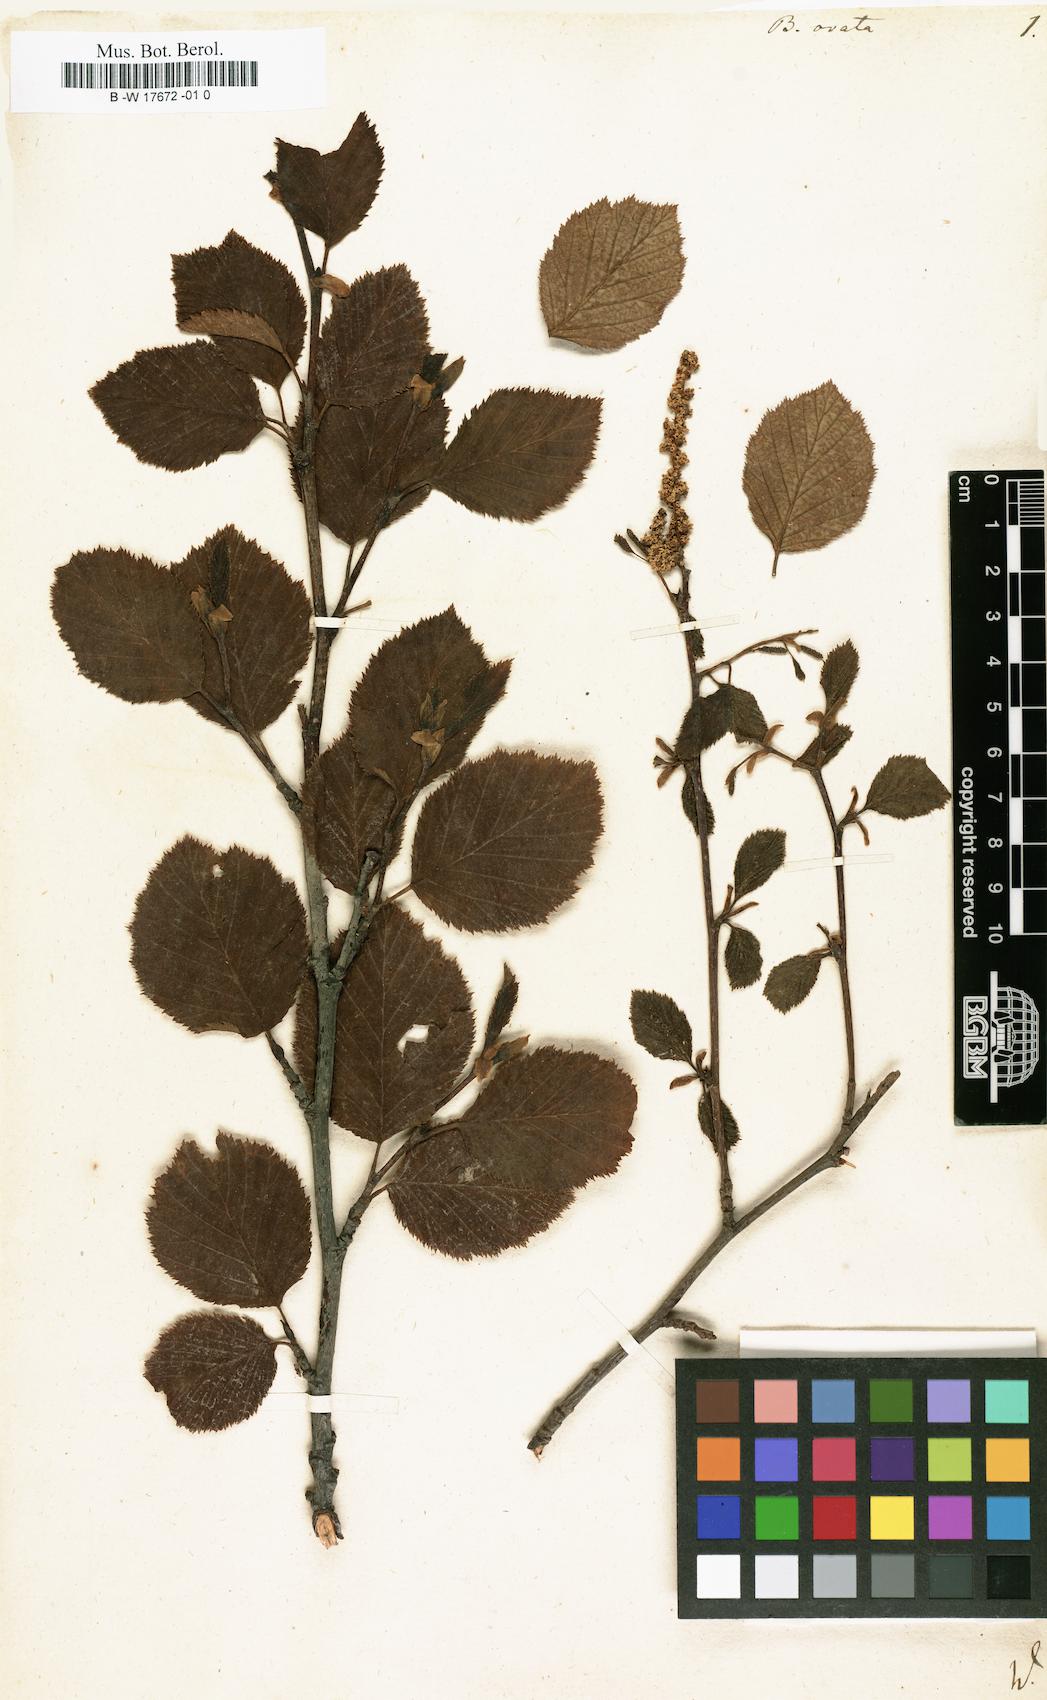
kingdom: Plantae
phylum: Tracheophyta
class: Magnoliopsida
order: Fagales
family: Betulaceae
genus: Betula
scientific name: Betula pubescens
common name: Downy birch
